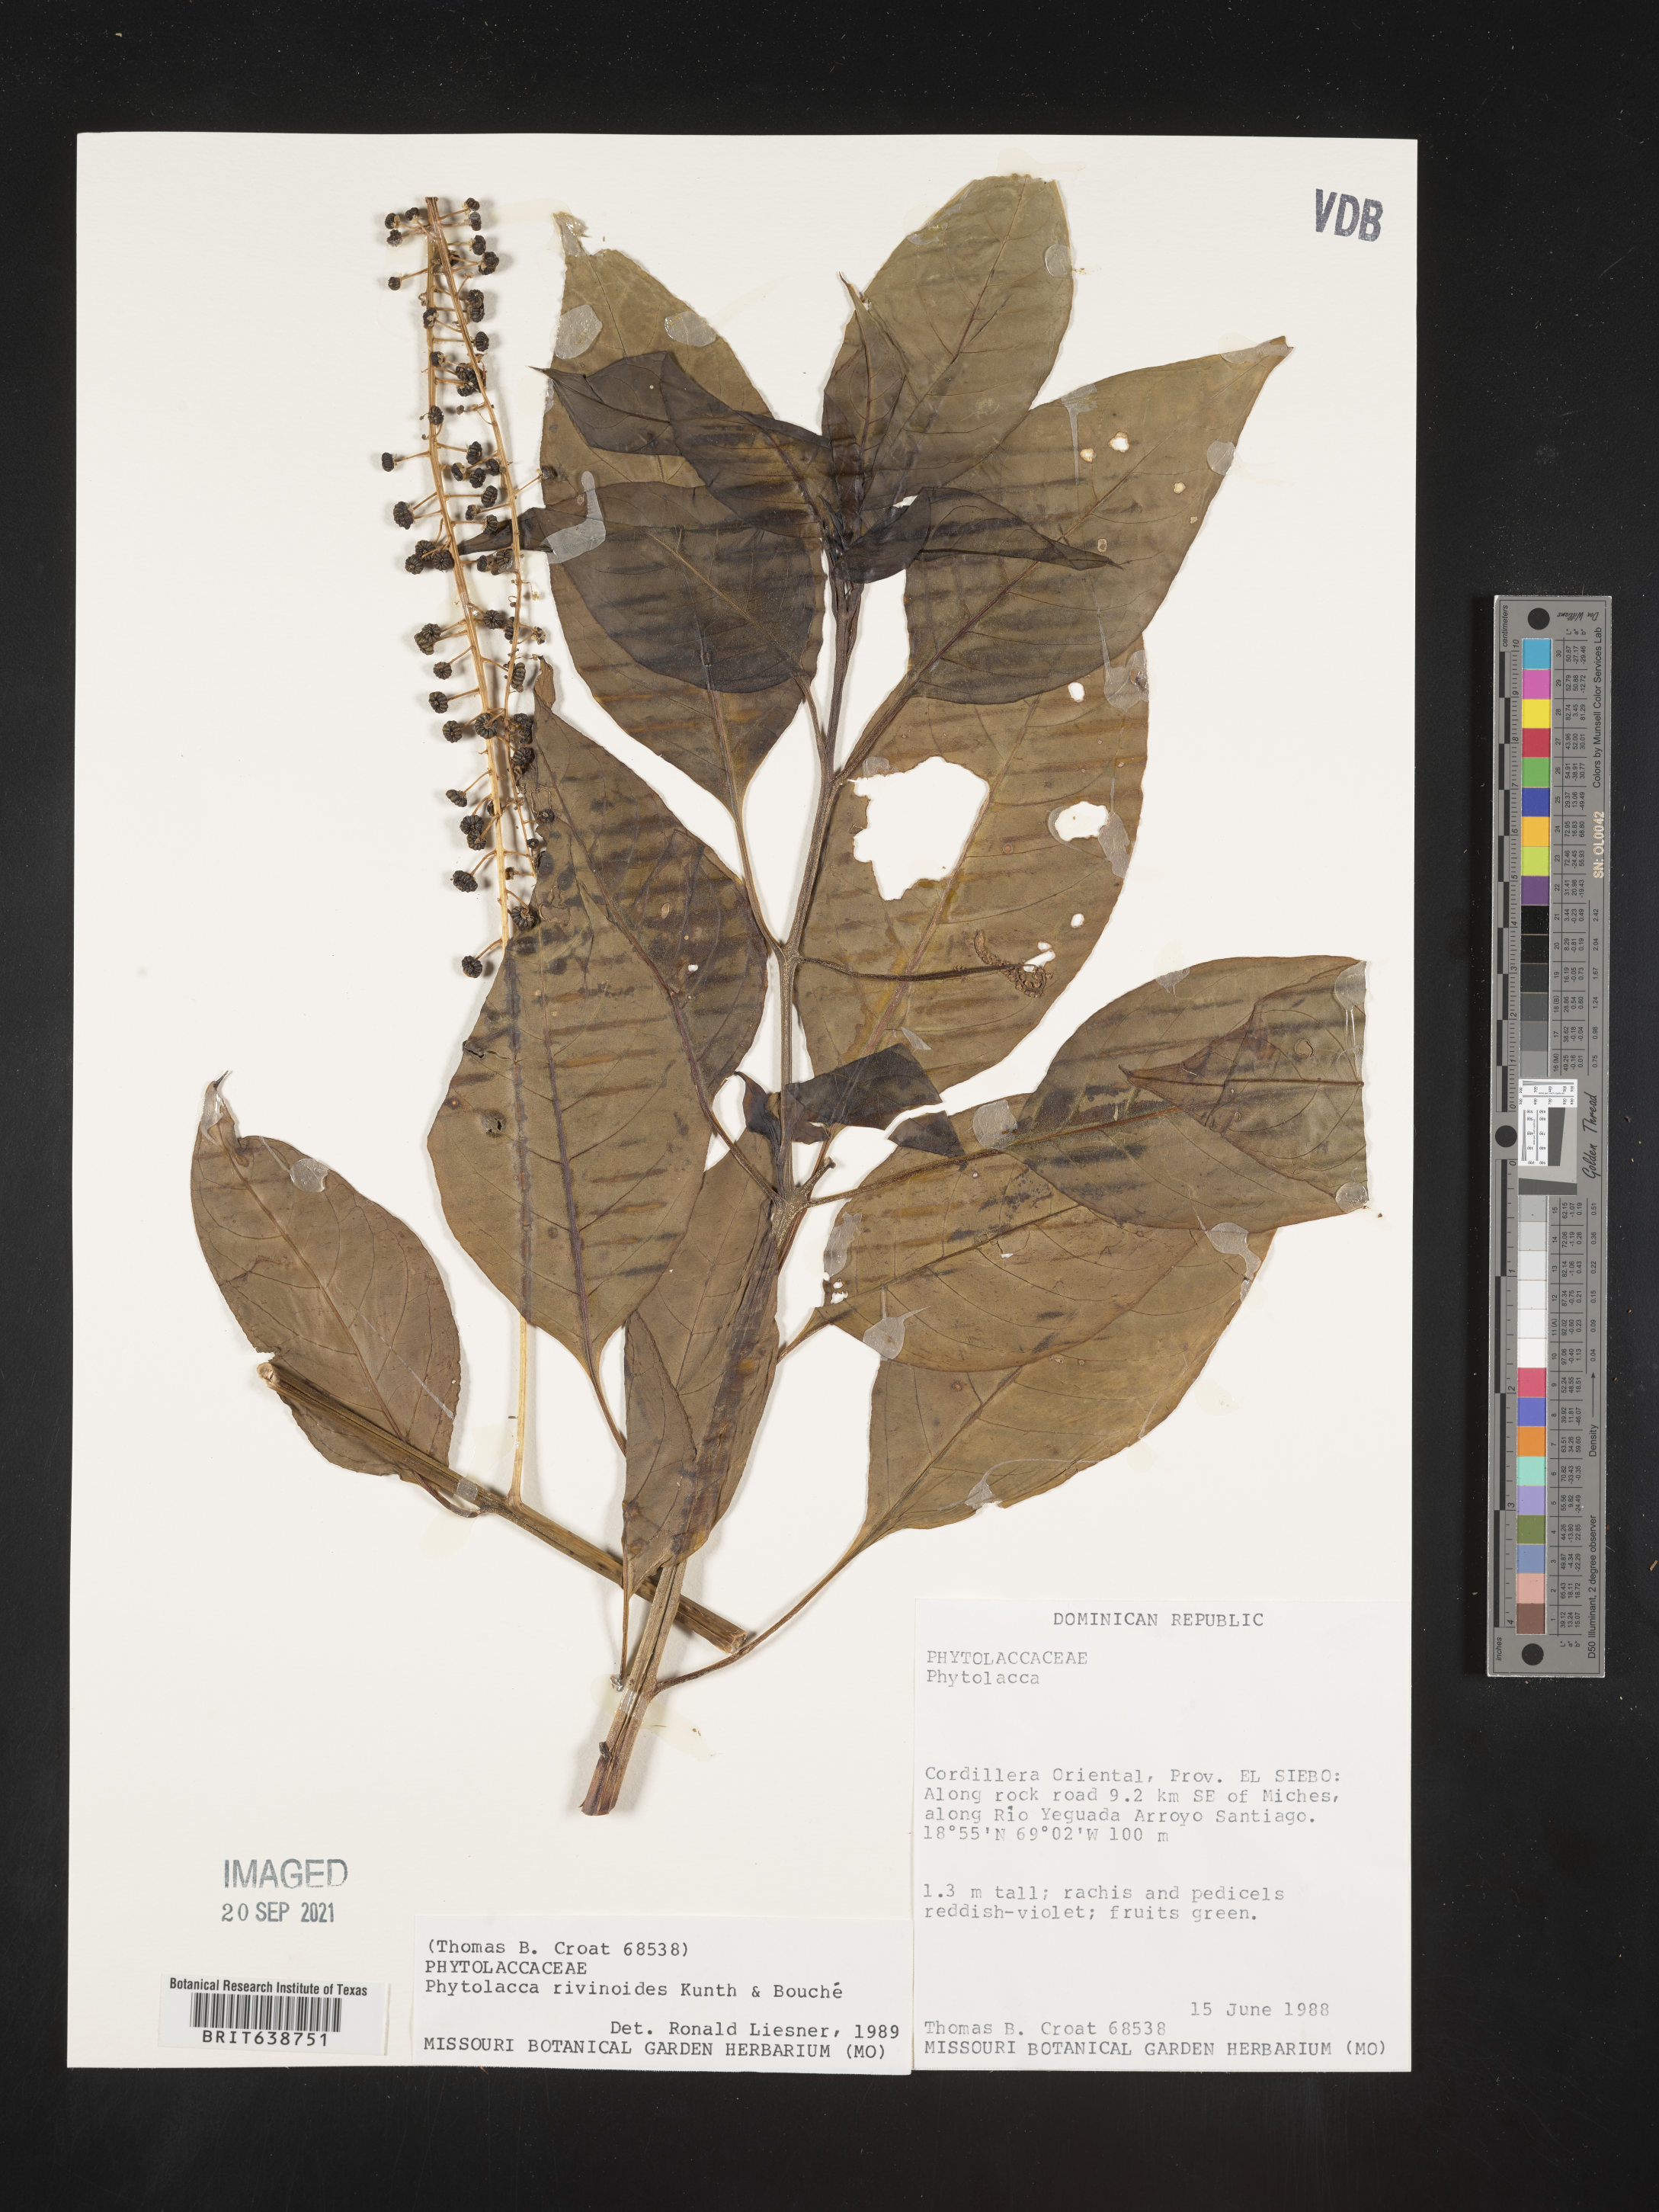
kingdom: Plantae
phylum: Tracheophyta
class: Magnoliopsida
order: Caryophyllales
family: Phytolaccaceae
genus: Phytolacca
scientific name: Phytolacca
